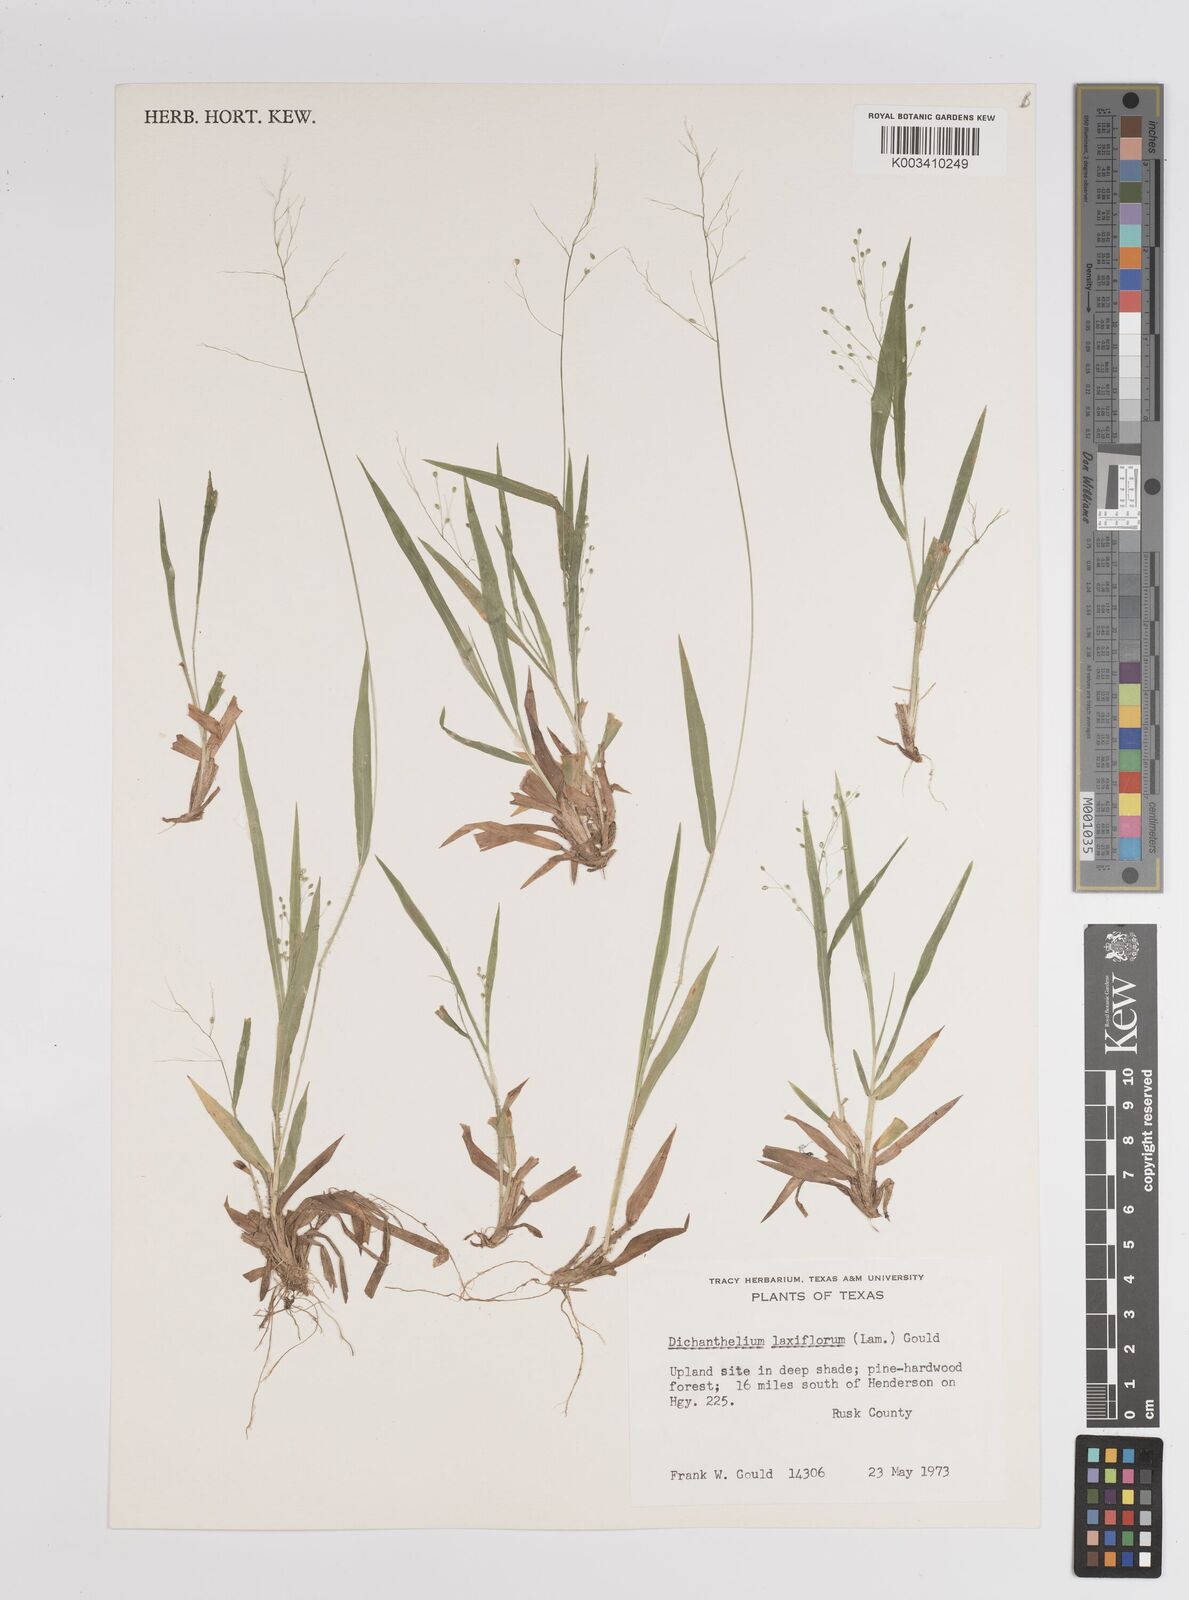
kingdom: Plantae
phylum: Tracheophyta
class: Liliopsida
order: Poales
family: Poaceae
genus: Dichanthelium
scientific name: Dichanthelium laxiflorum
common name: Soft-tuft panic grass
